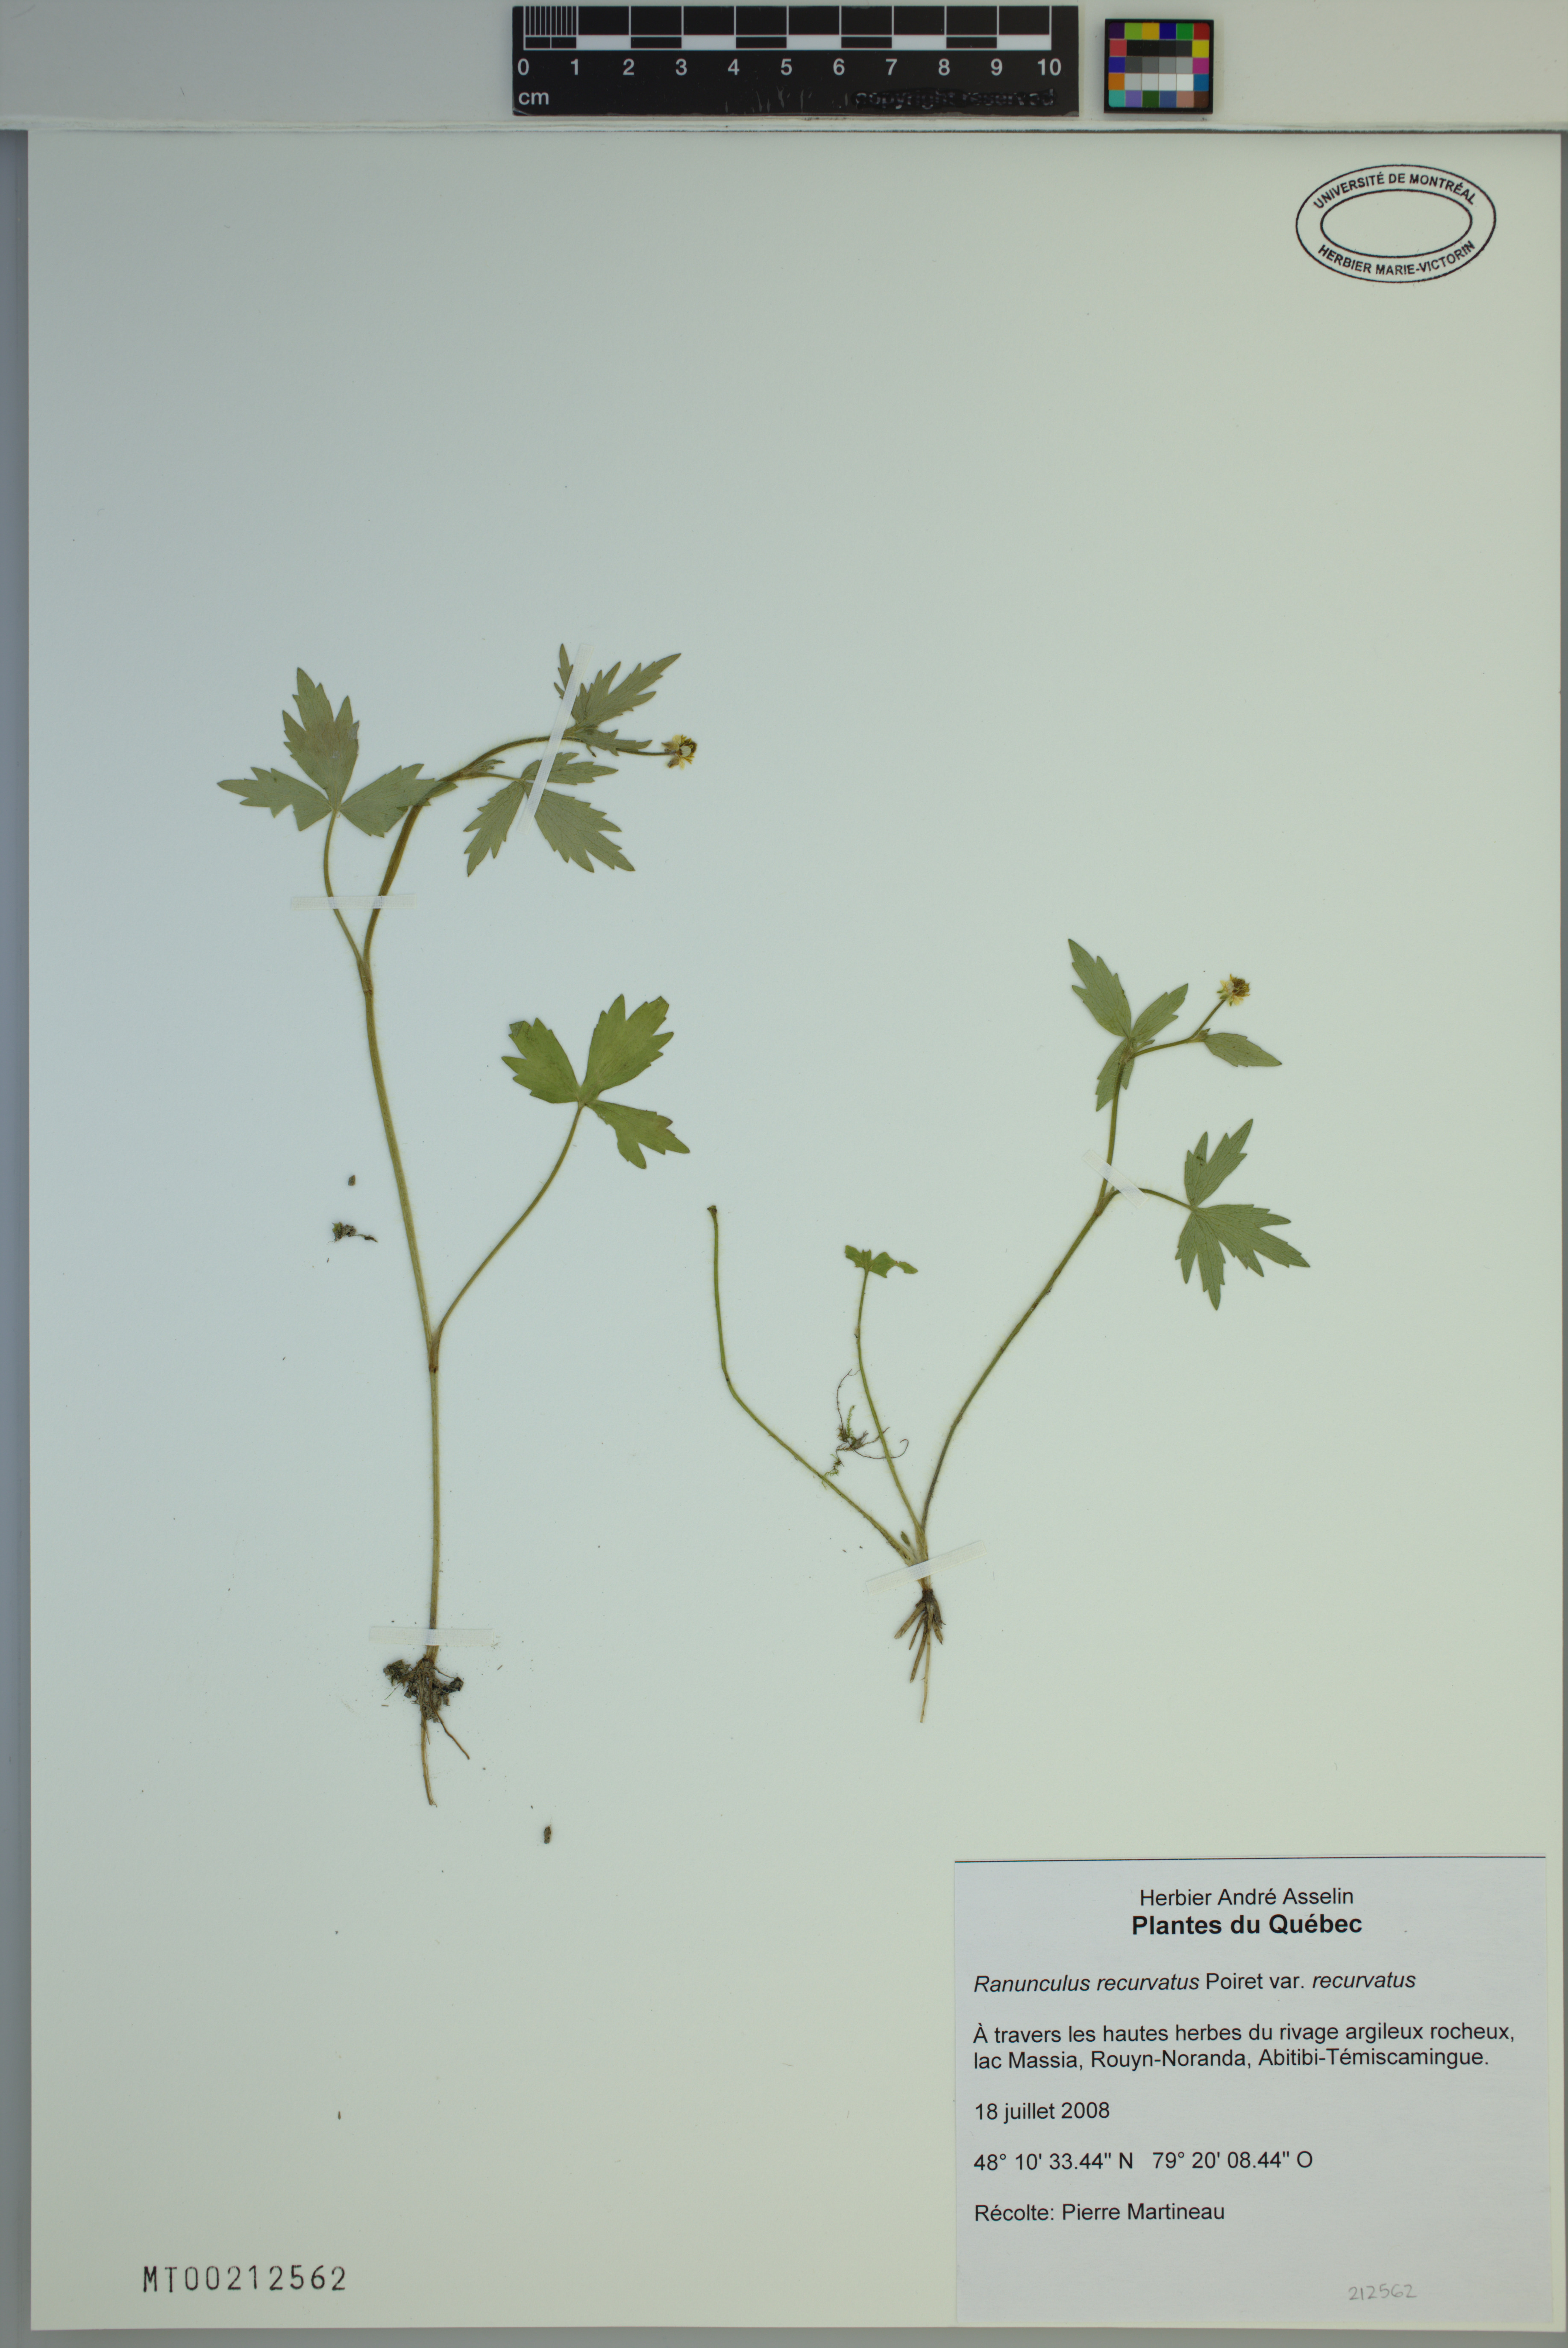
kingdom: Plantae
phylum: Tracheophyta
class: Magnoliopsida
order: Ranunculales
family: Ranunculaceae
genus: Ranunculus
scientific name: Ranunculus recurvatus
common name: Blisterwort
